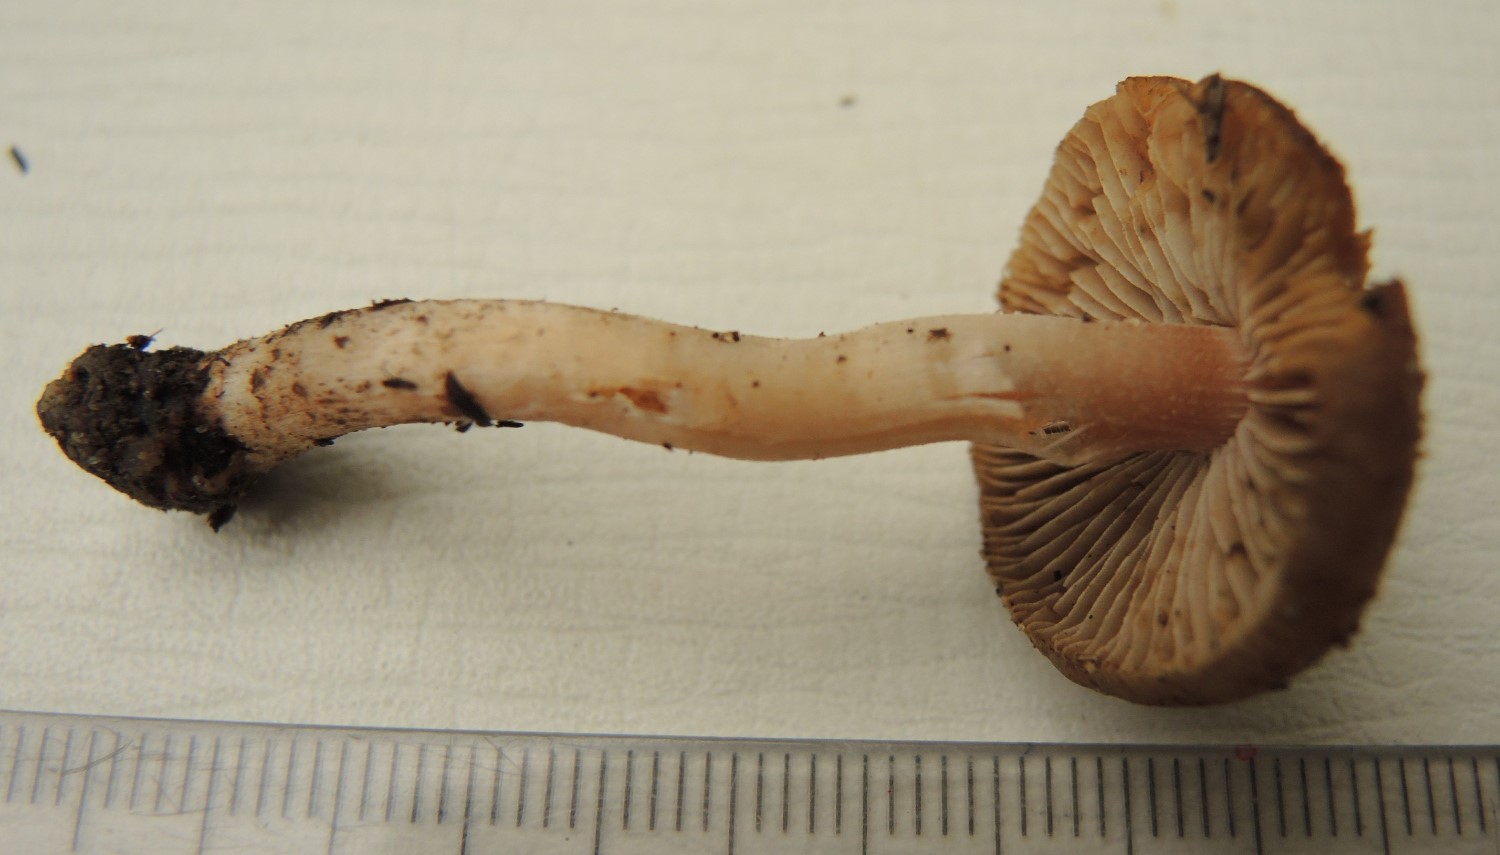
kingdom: Fungi
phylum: Basidiomycota
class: Agaricomycetes
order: Agaricales
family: Inocybaceae
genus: Inocybe
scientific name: Inocybe hirtella
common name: mandel-trævlhat
